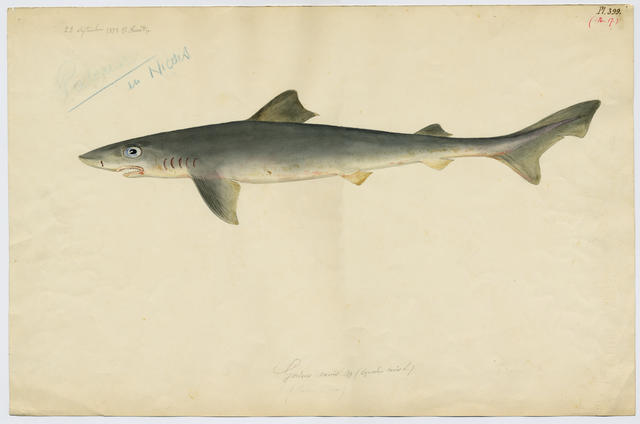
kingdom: Animalia
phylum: Chordata
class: Elasmobranchii
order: Carcharhiniformes
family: Triakidae
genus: Galeorhinus
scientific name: Galeorhinus galeus
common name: Tope
